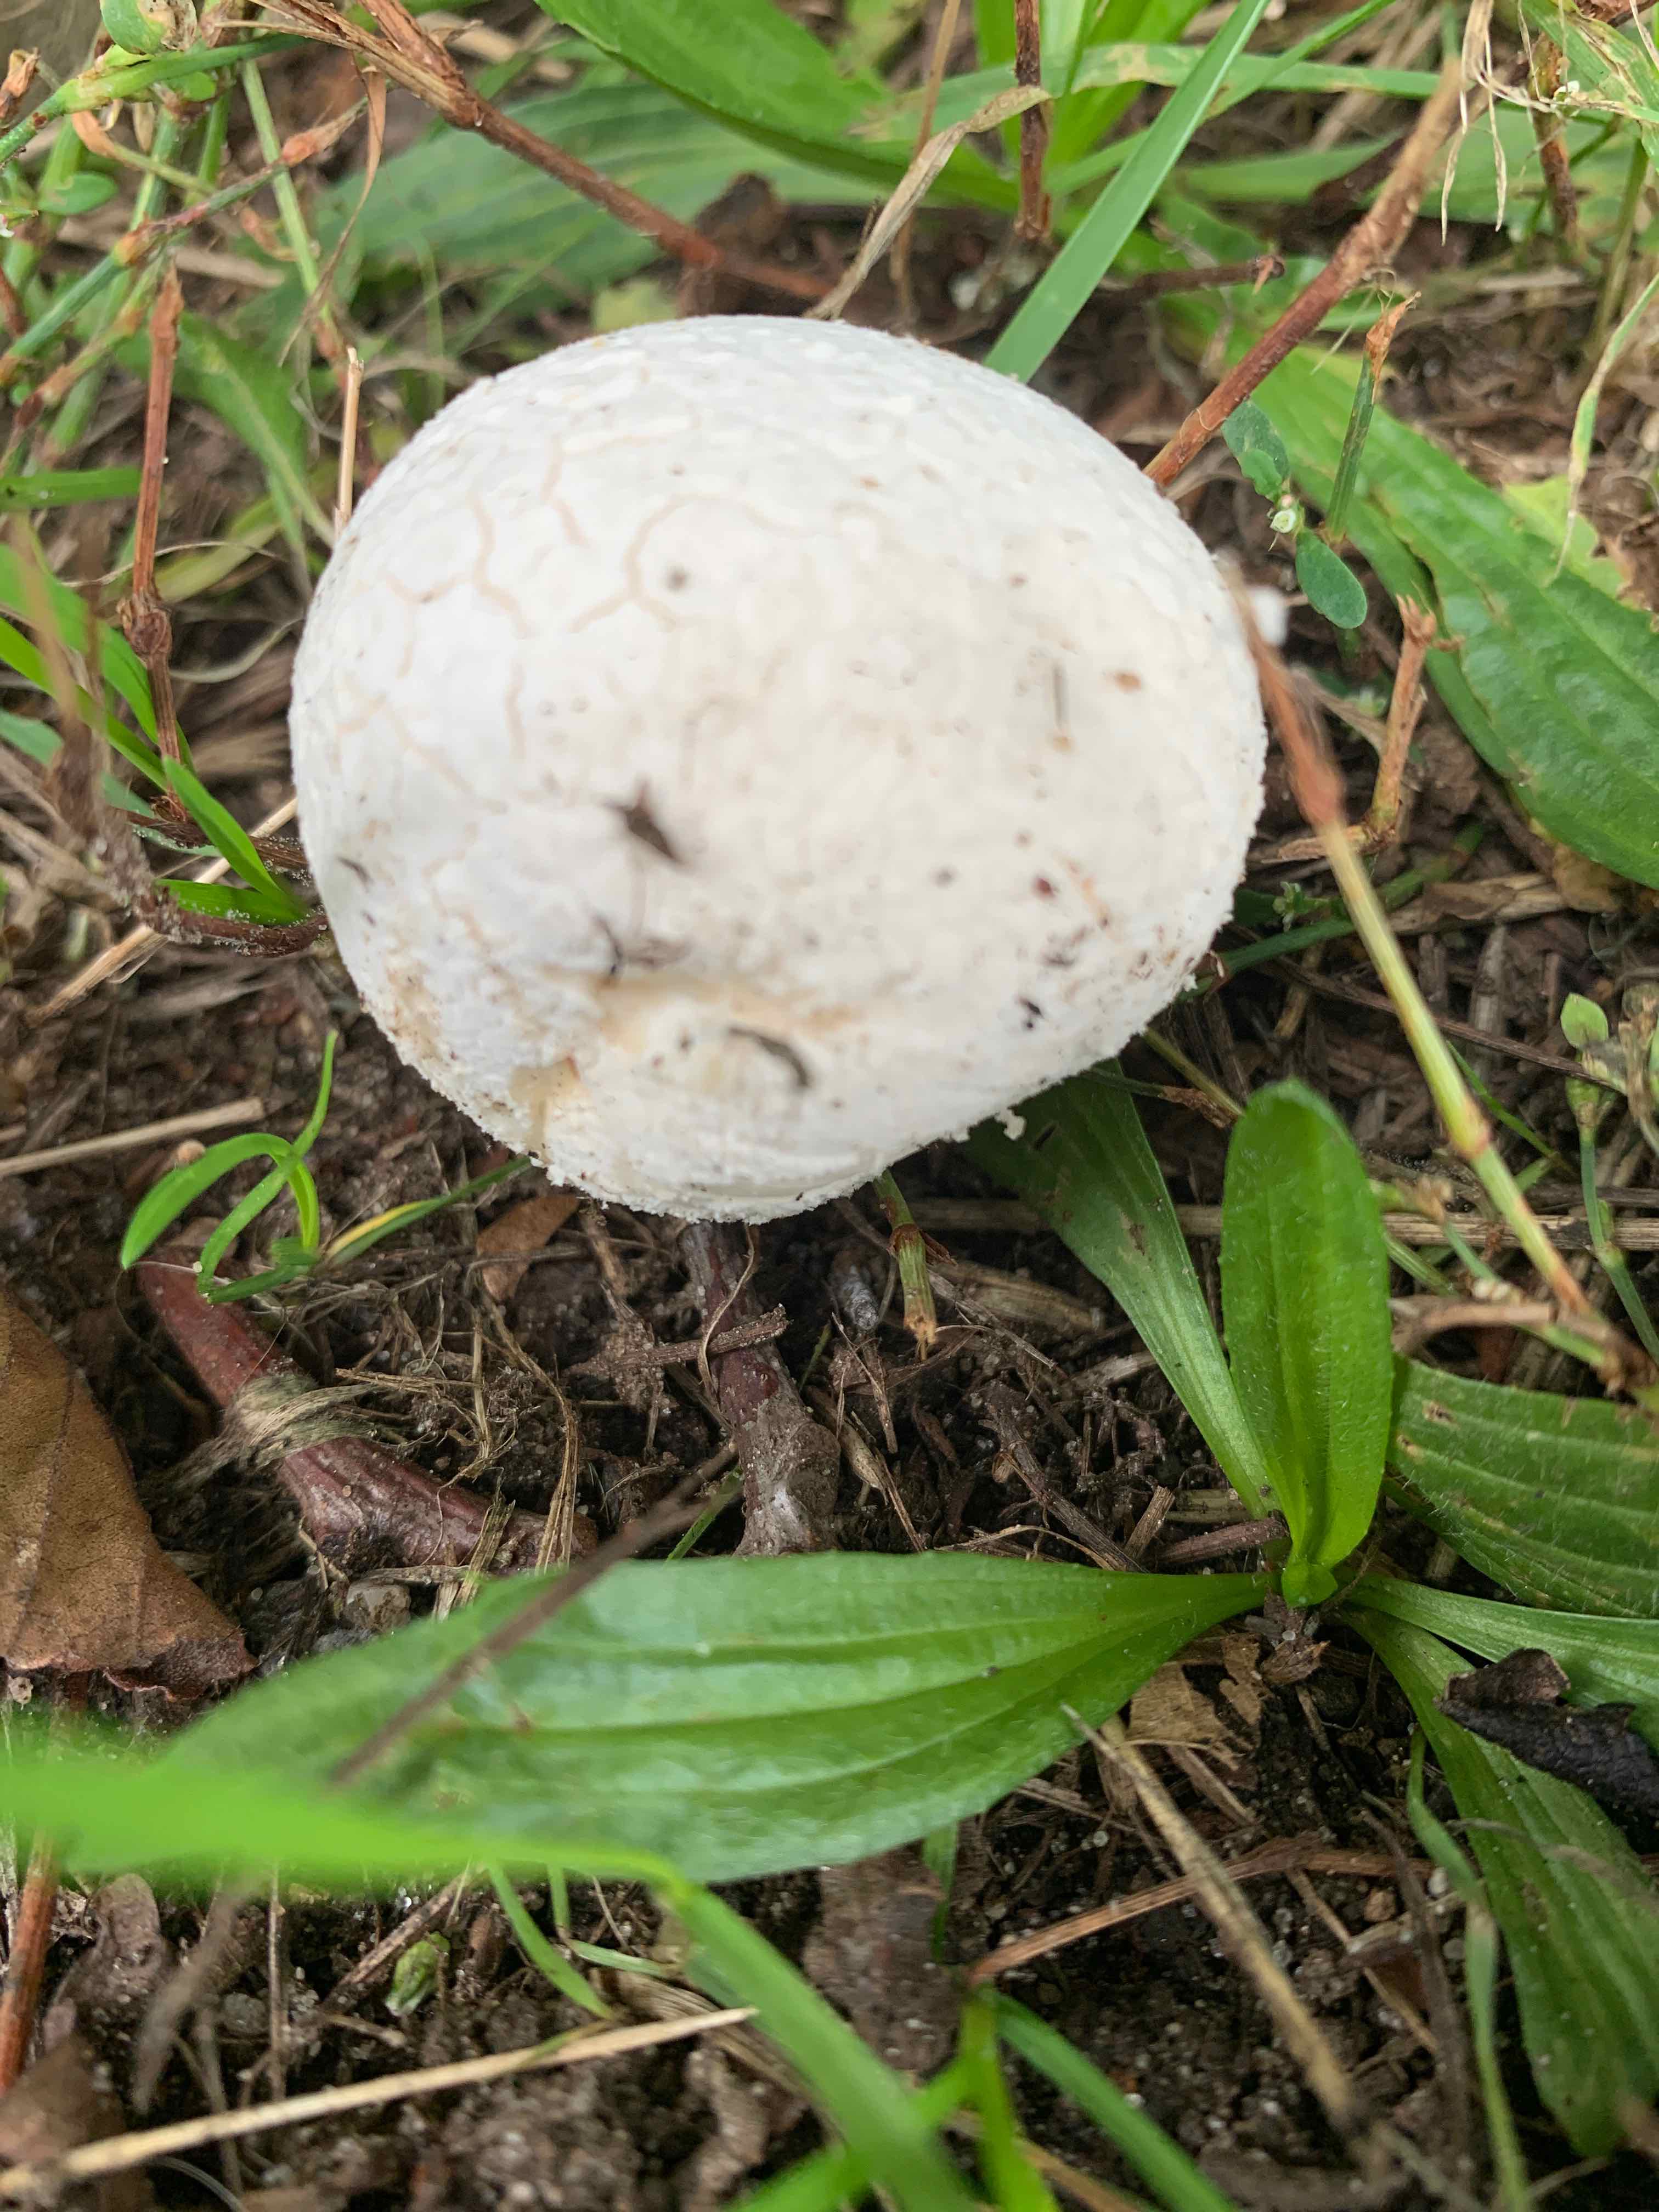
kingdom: Fungi
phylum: Basidiomycota
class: Agaricomycetes
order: Agaricales
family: Lycoperdaceae
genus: Bovista
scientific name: Bovista
